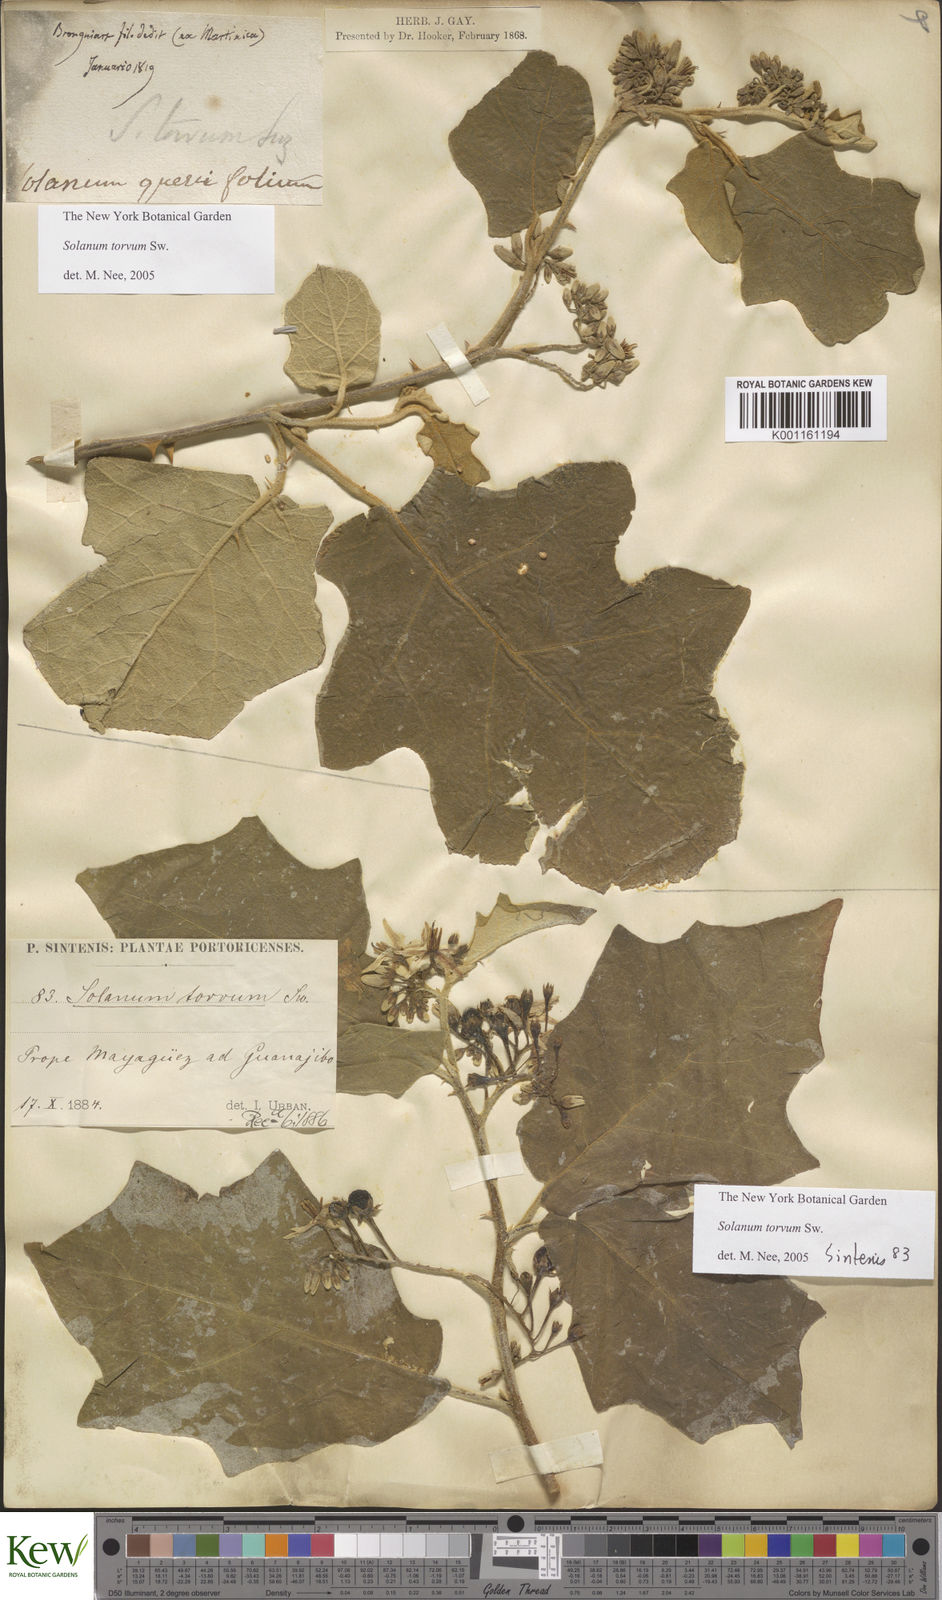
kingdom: Plantae
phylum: Tracheophyta
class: Magnoliopsida
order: Solanales
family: Solanaceae
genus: Solanum
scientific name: Solanum torvum
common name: Turkey berry
